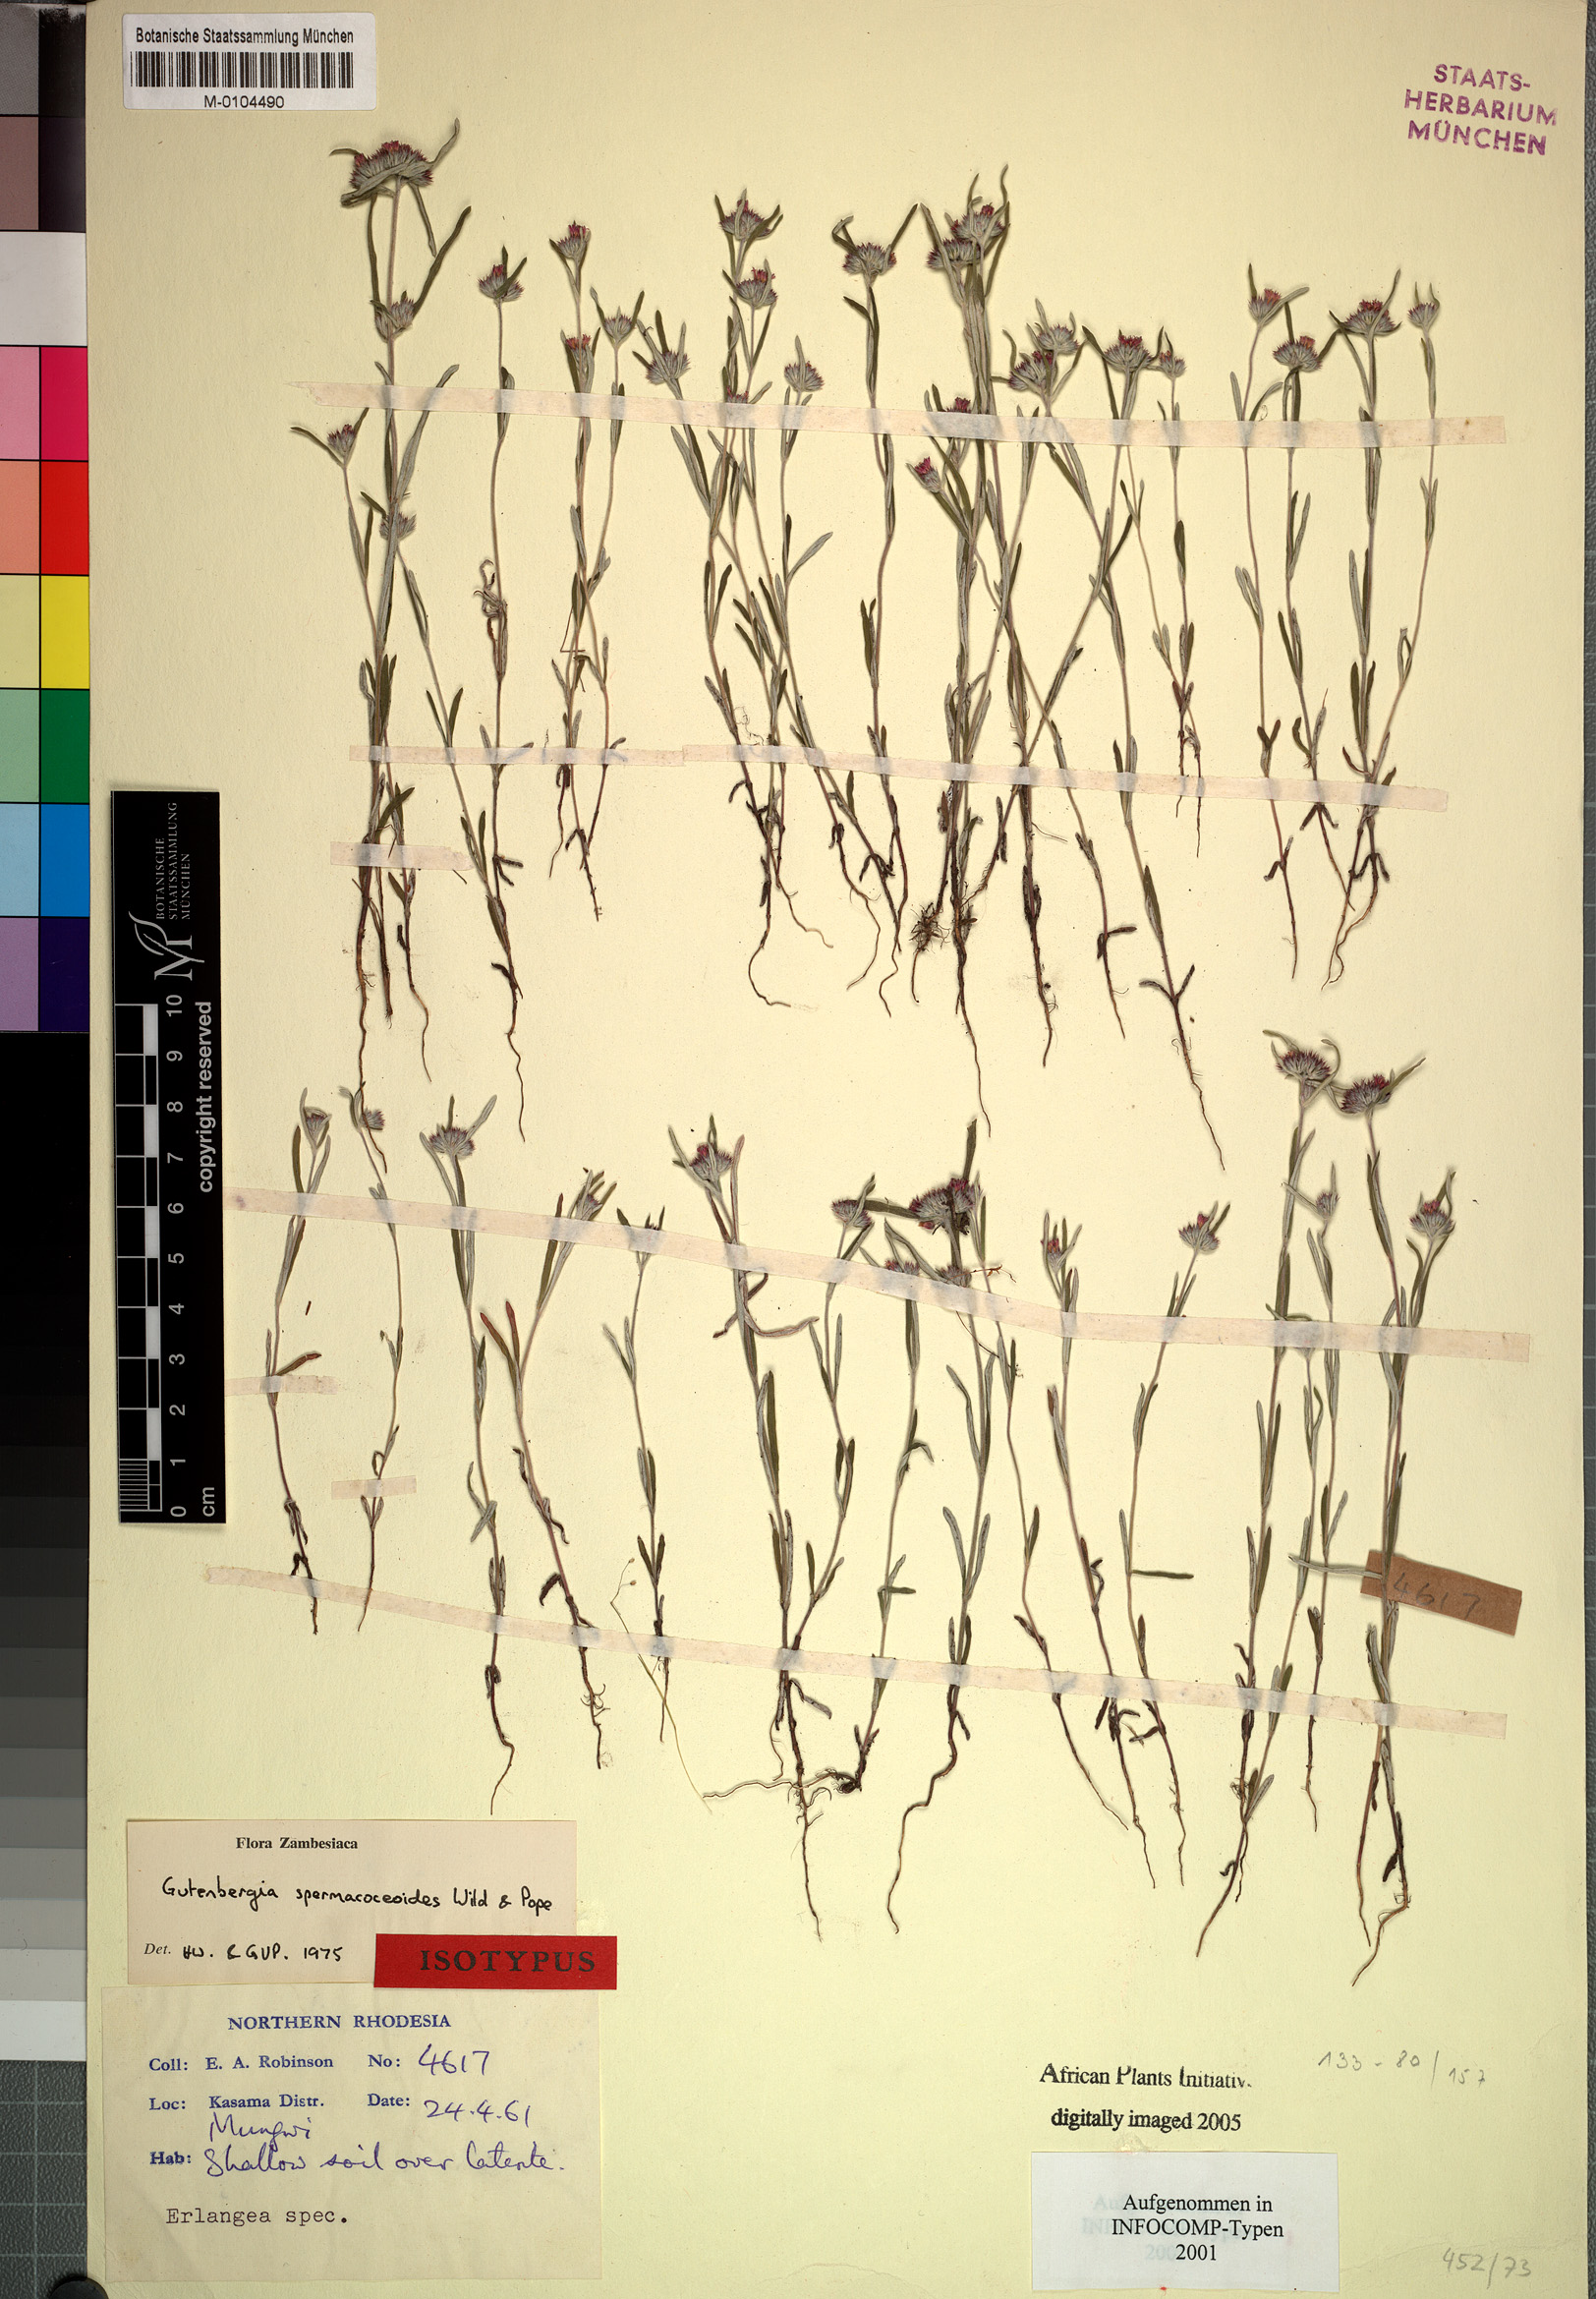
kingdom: Plantae
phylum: Tracheophyta
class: Magnoliopsida
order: Asterales
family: Asteraceae
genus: Gutenbergia
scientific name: Gutenbergia spermacoceoides
